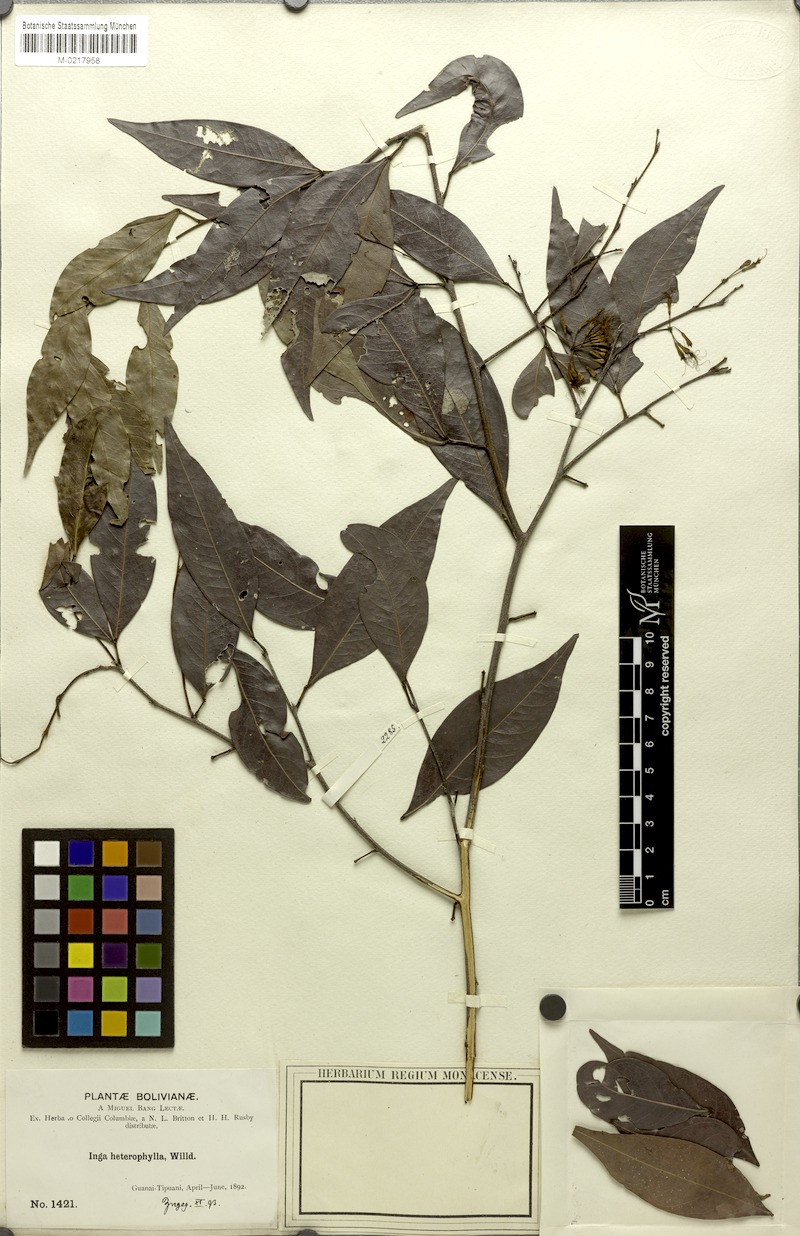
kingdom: Plantae
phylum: Tracheophyta
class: Magnoliopsida
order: Fabales
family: Fabaceae
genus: Inga
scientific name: Inga heterophylla
